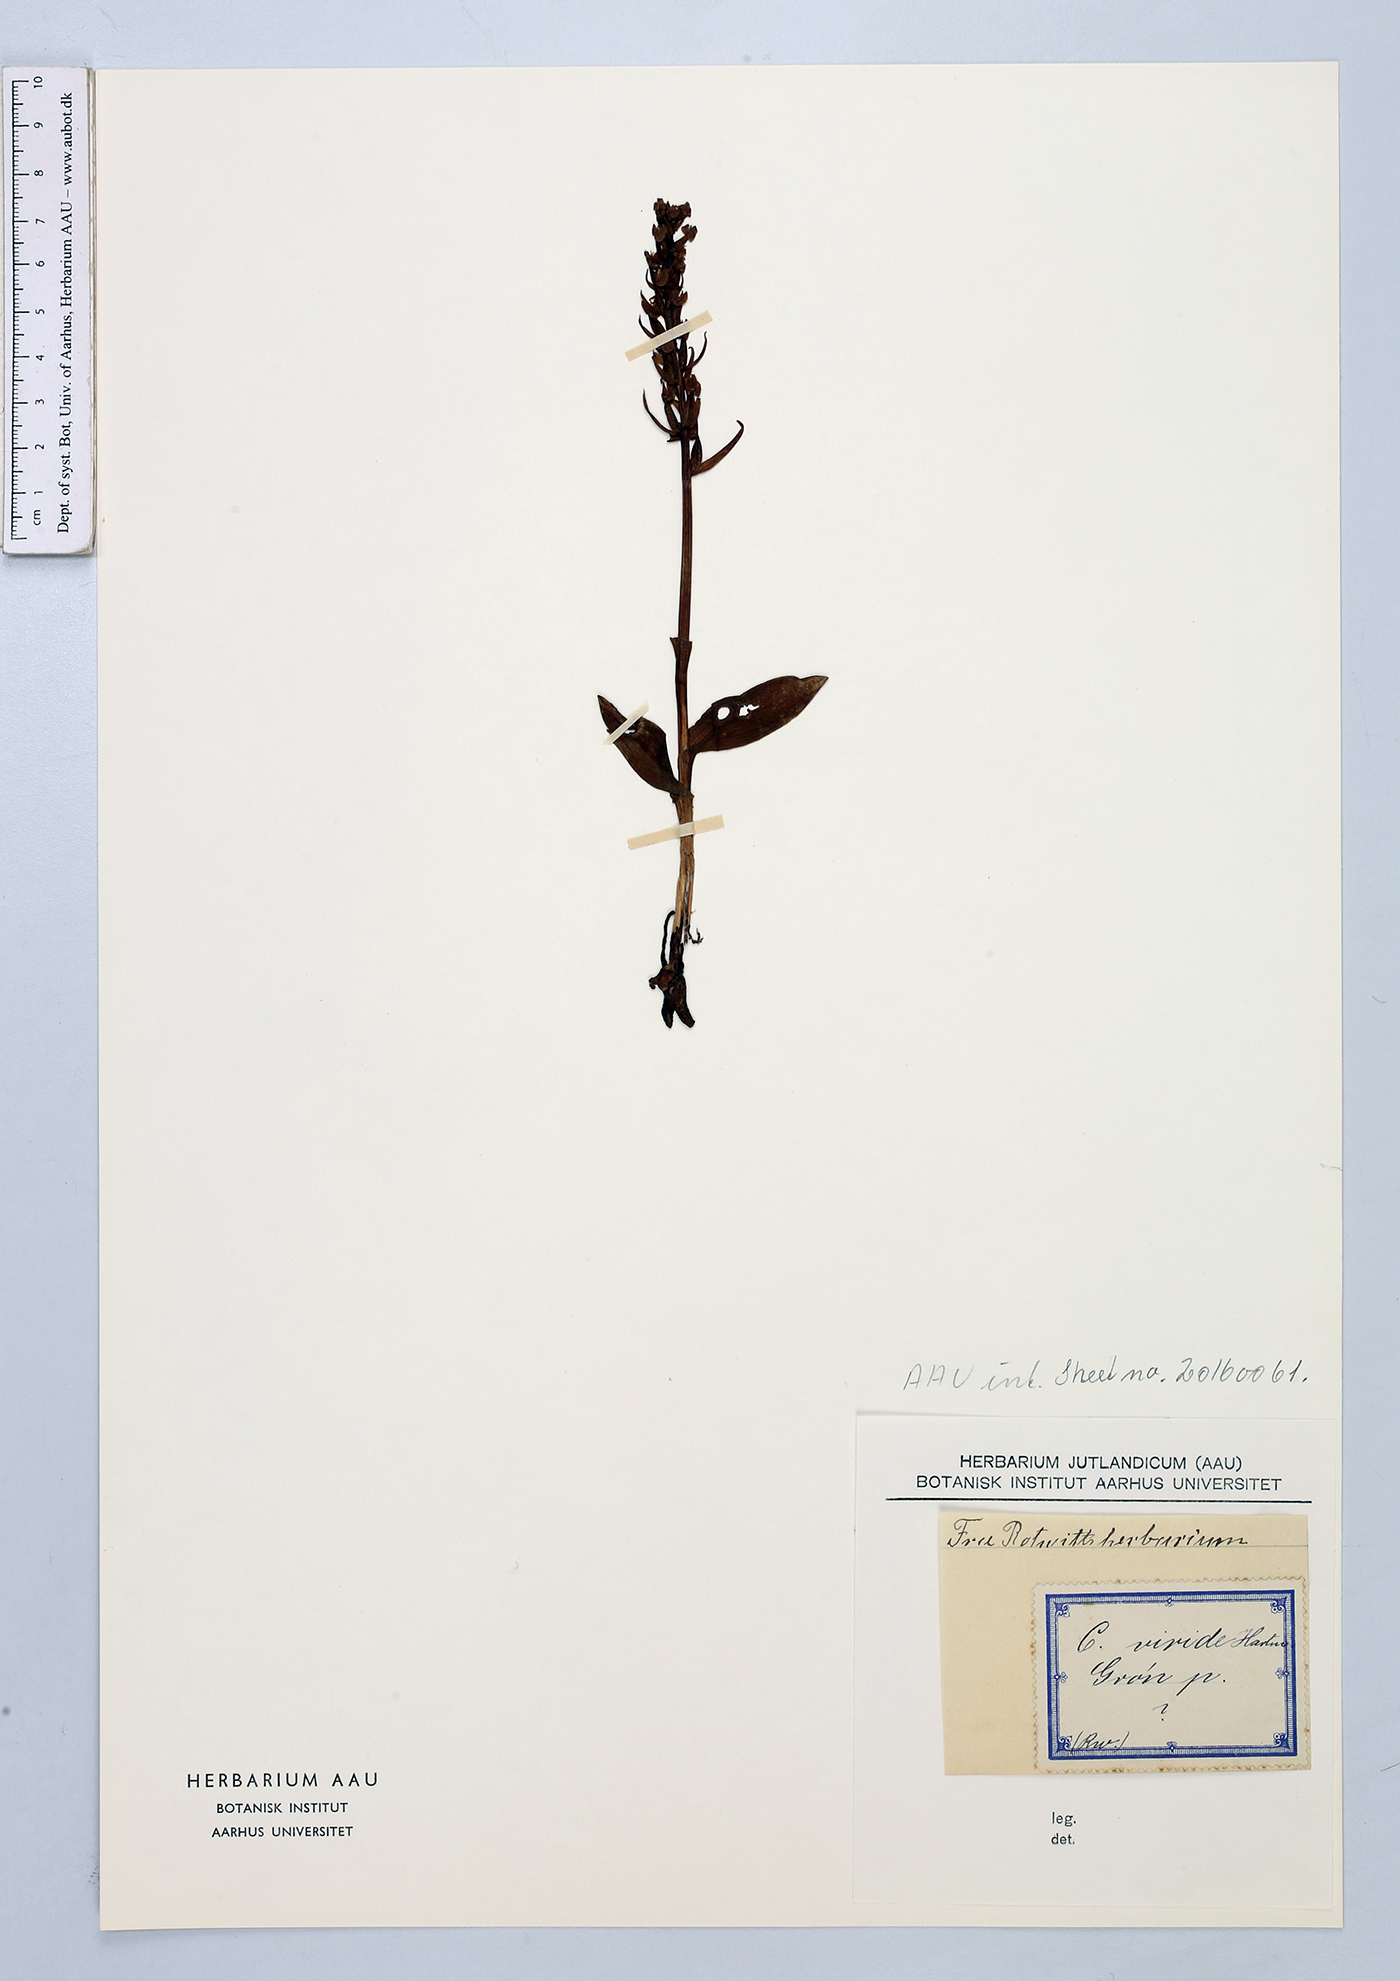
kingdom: Plantae
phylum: Tracheophyta
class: Liliopsida
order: Asparagales
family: Orchidaceae
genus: Dactylorhiza
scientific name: Dactylorhiza viridis
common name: Longbract frog orchid
